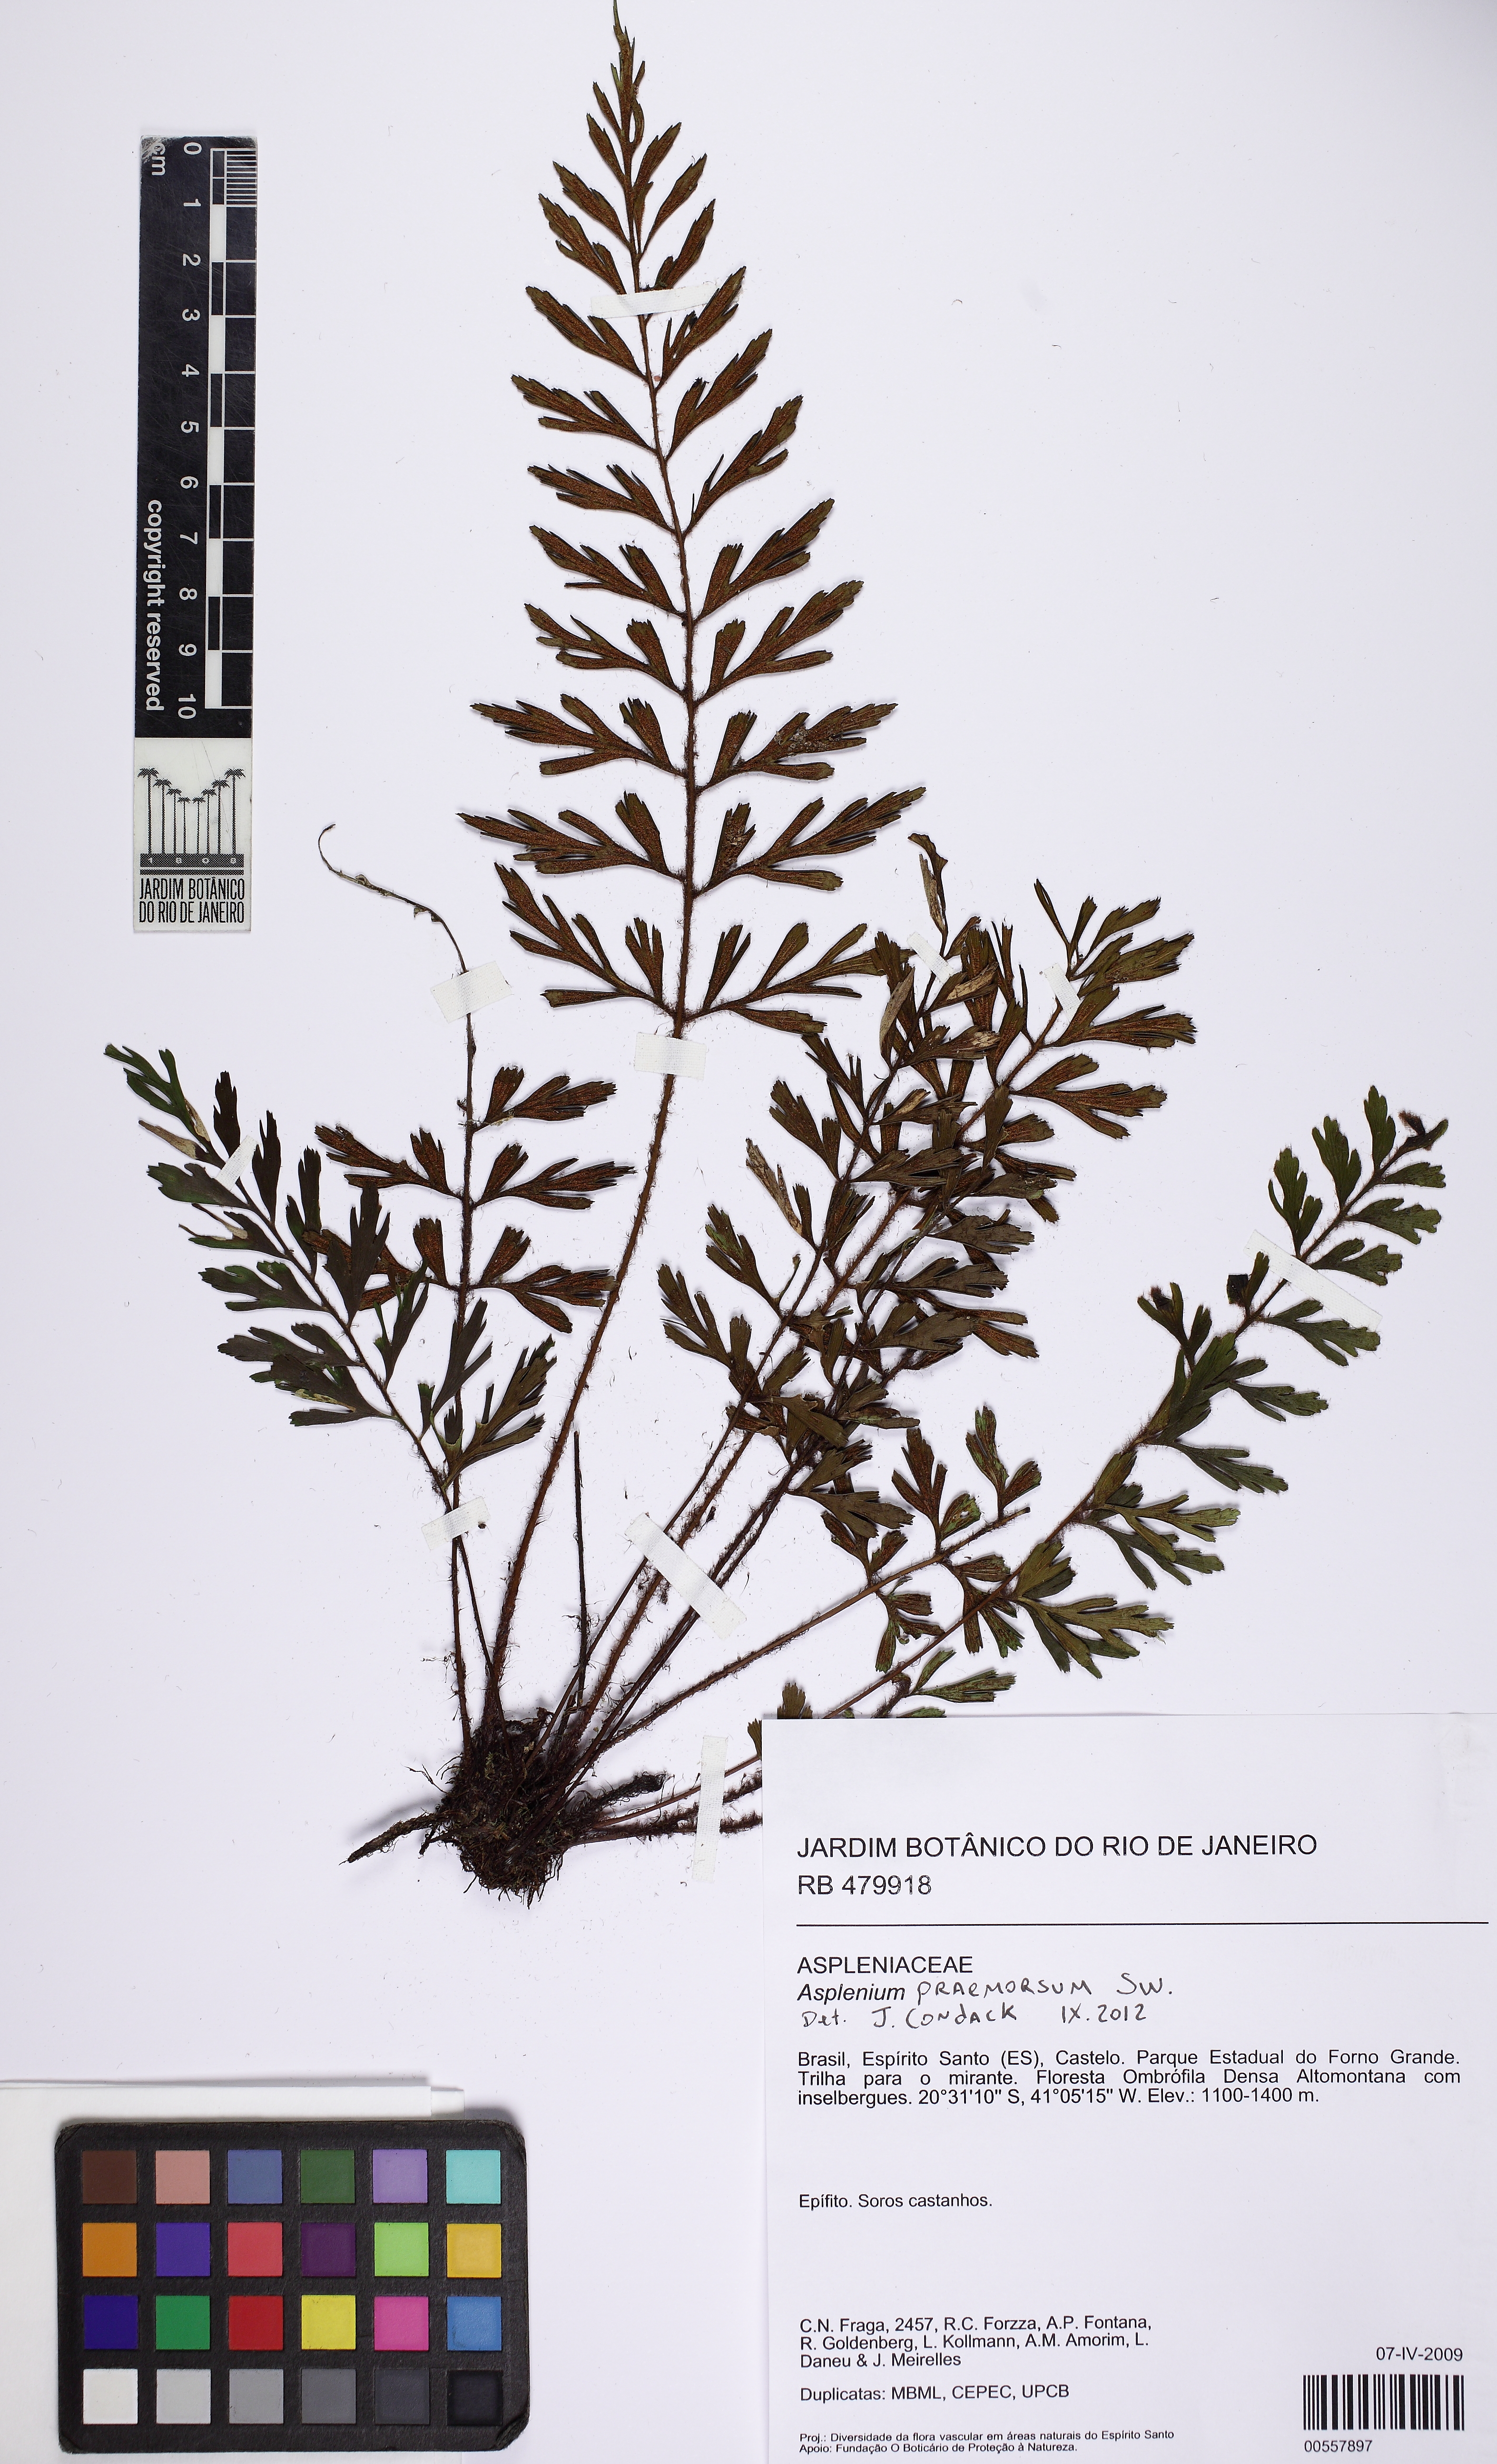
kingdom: Plantae
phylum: Tracheophyta
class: Polypodiopsida
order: Polypodiales
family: Aspleniaceae
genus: Asplenium
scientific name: Asplenium praemorsum
